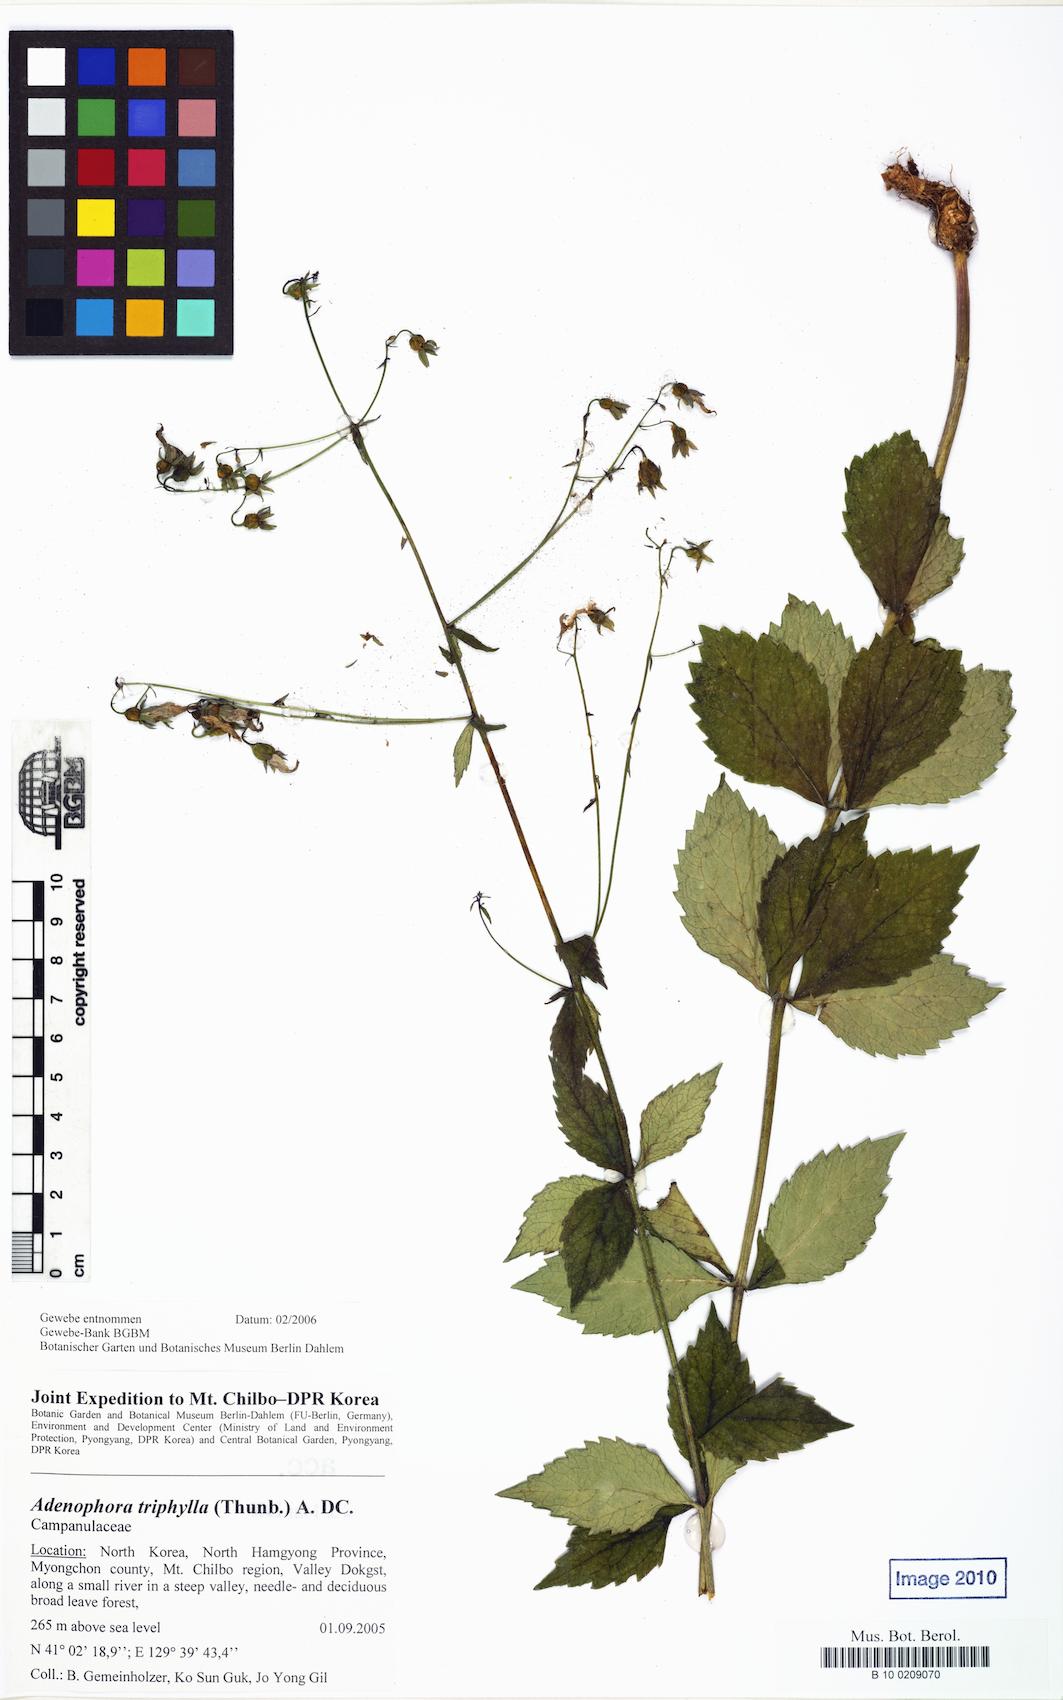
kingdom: Plantae
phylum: Tracheophyta
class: Magnoliopsida
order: Asterales
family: Campanulaceae
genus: Adenophora
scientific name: Adenophora triphylla
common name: Giant-bellflower
